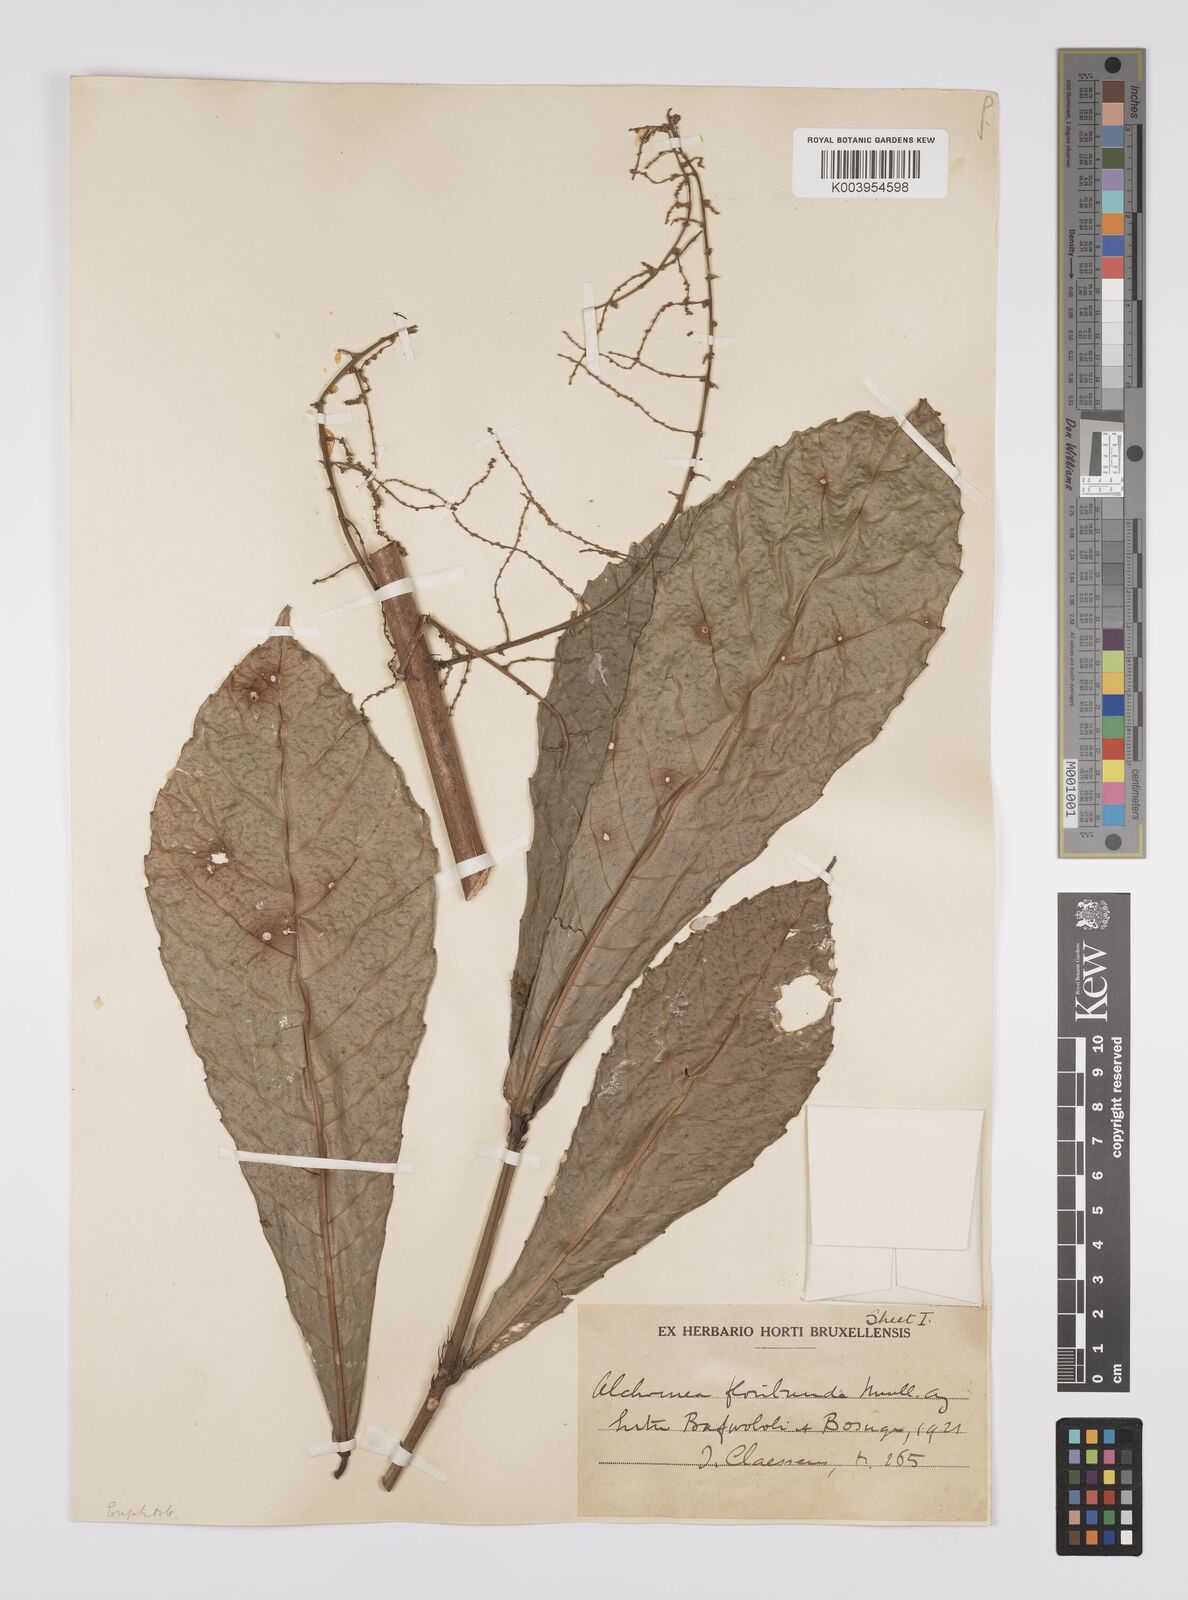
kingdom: Plantae
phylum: Tracheophyta
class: Magnoliopsida
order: Malpighiales
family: Euphorbiaceae
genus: Alchornea
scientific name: Alchornea floribunda
